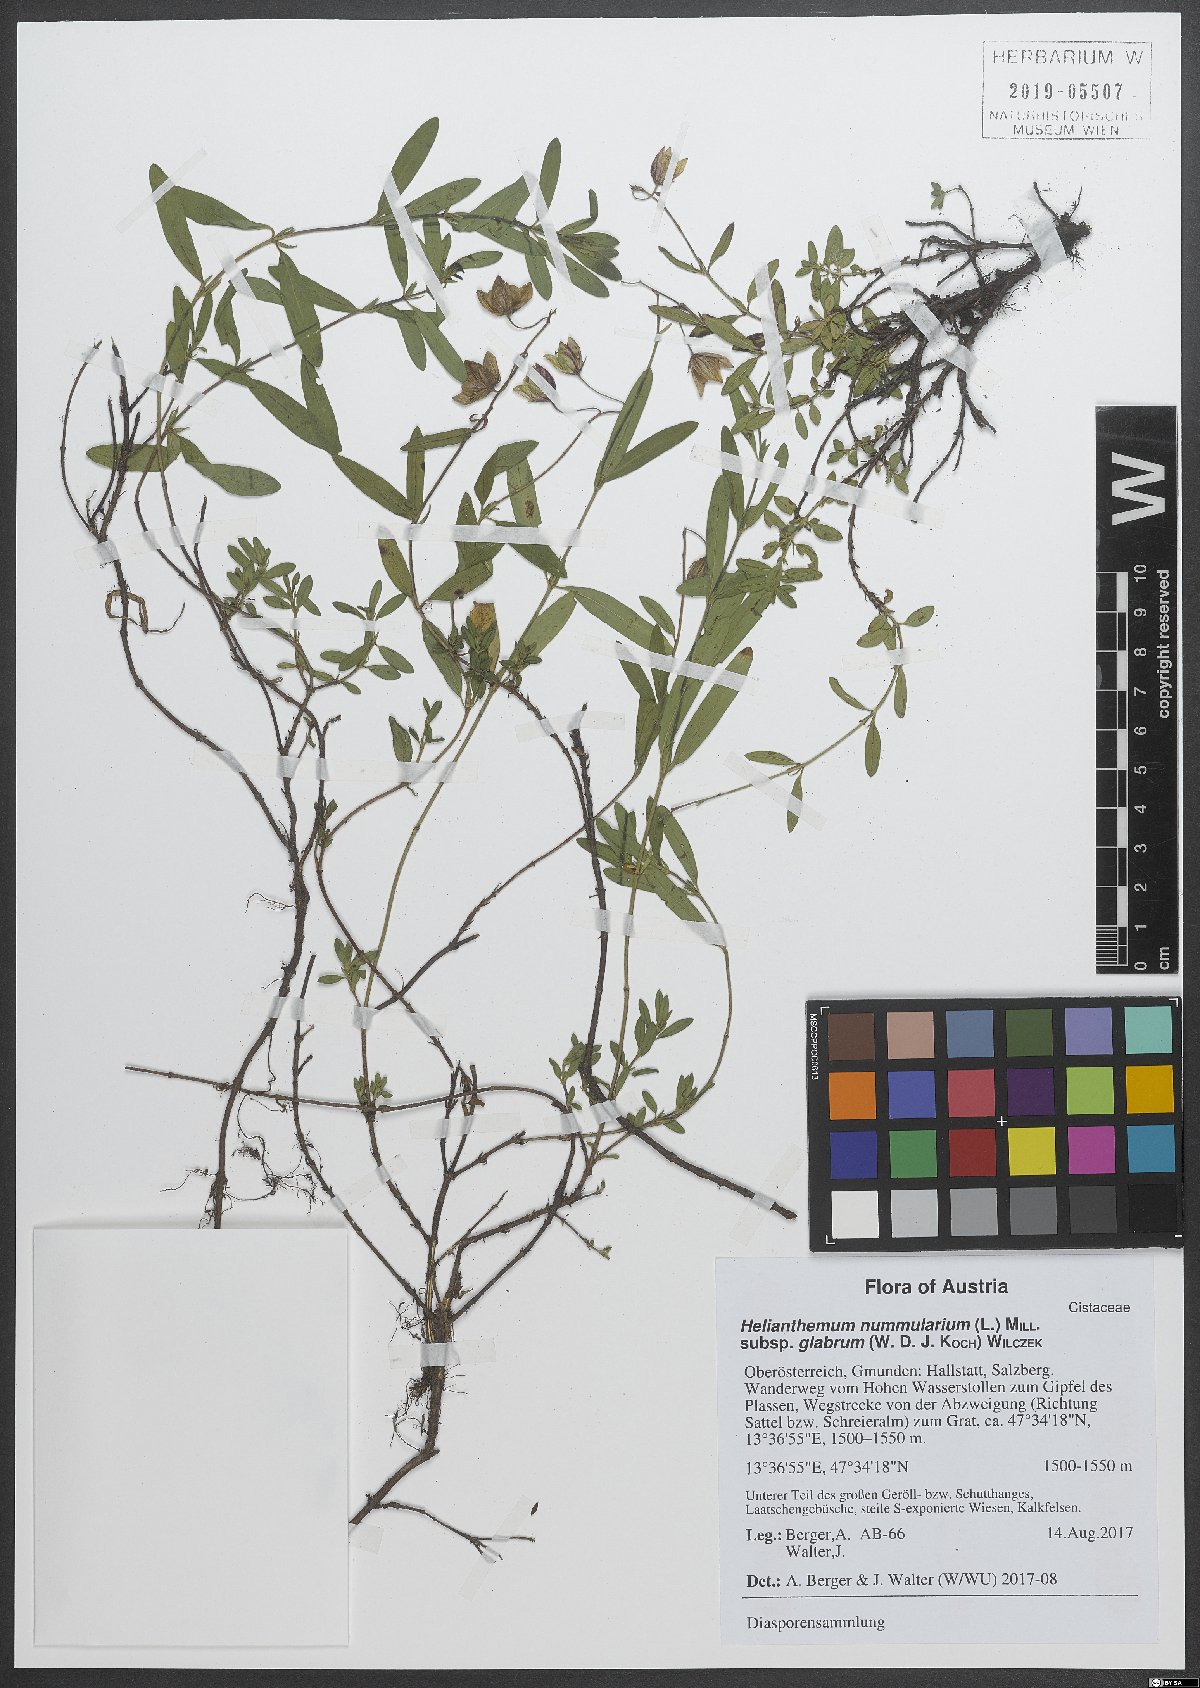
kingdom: Plantae
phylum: Tracheophyta
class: Magnoliopsida
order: Malvales
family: Cistaceae
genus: Helianthemum
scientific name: Helianthemum nummularium
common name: Common rock-rose
